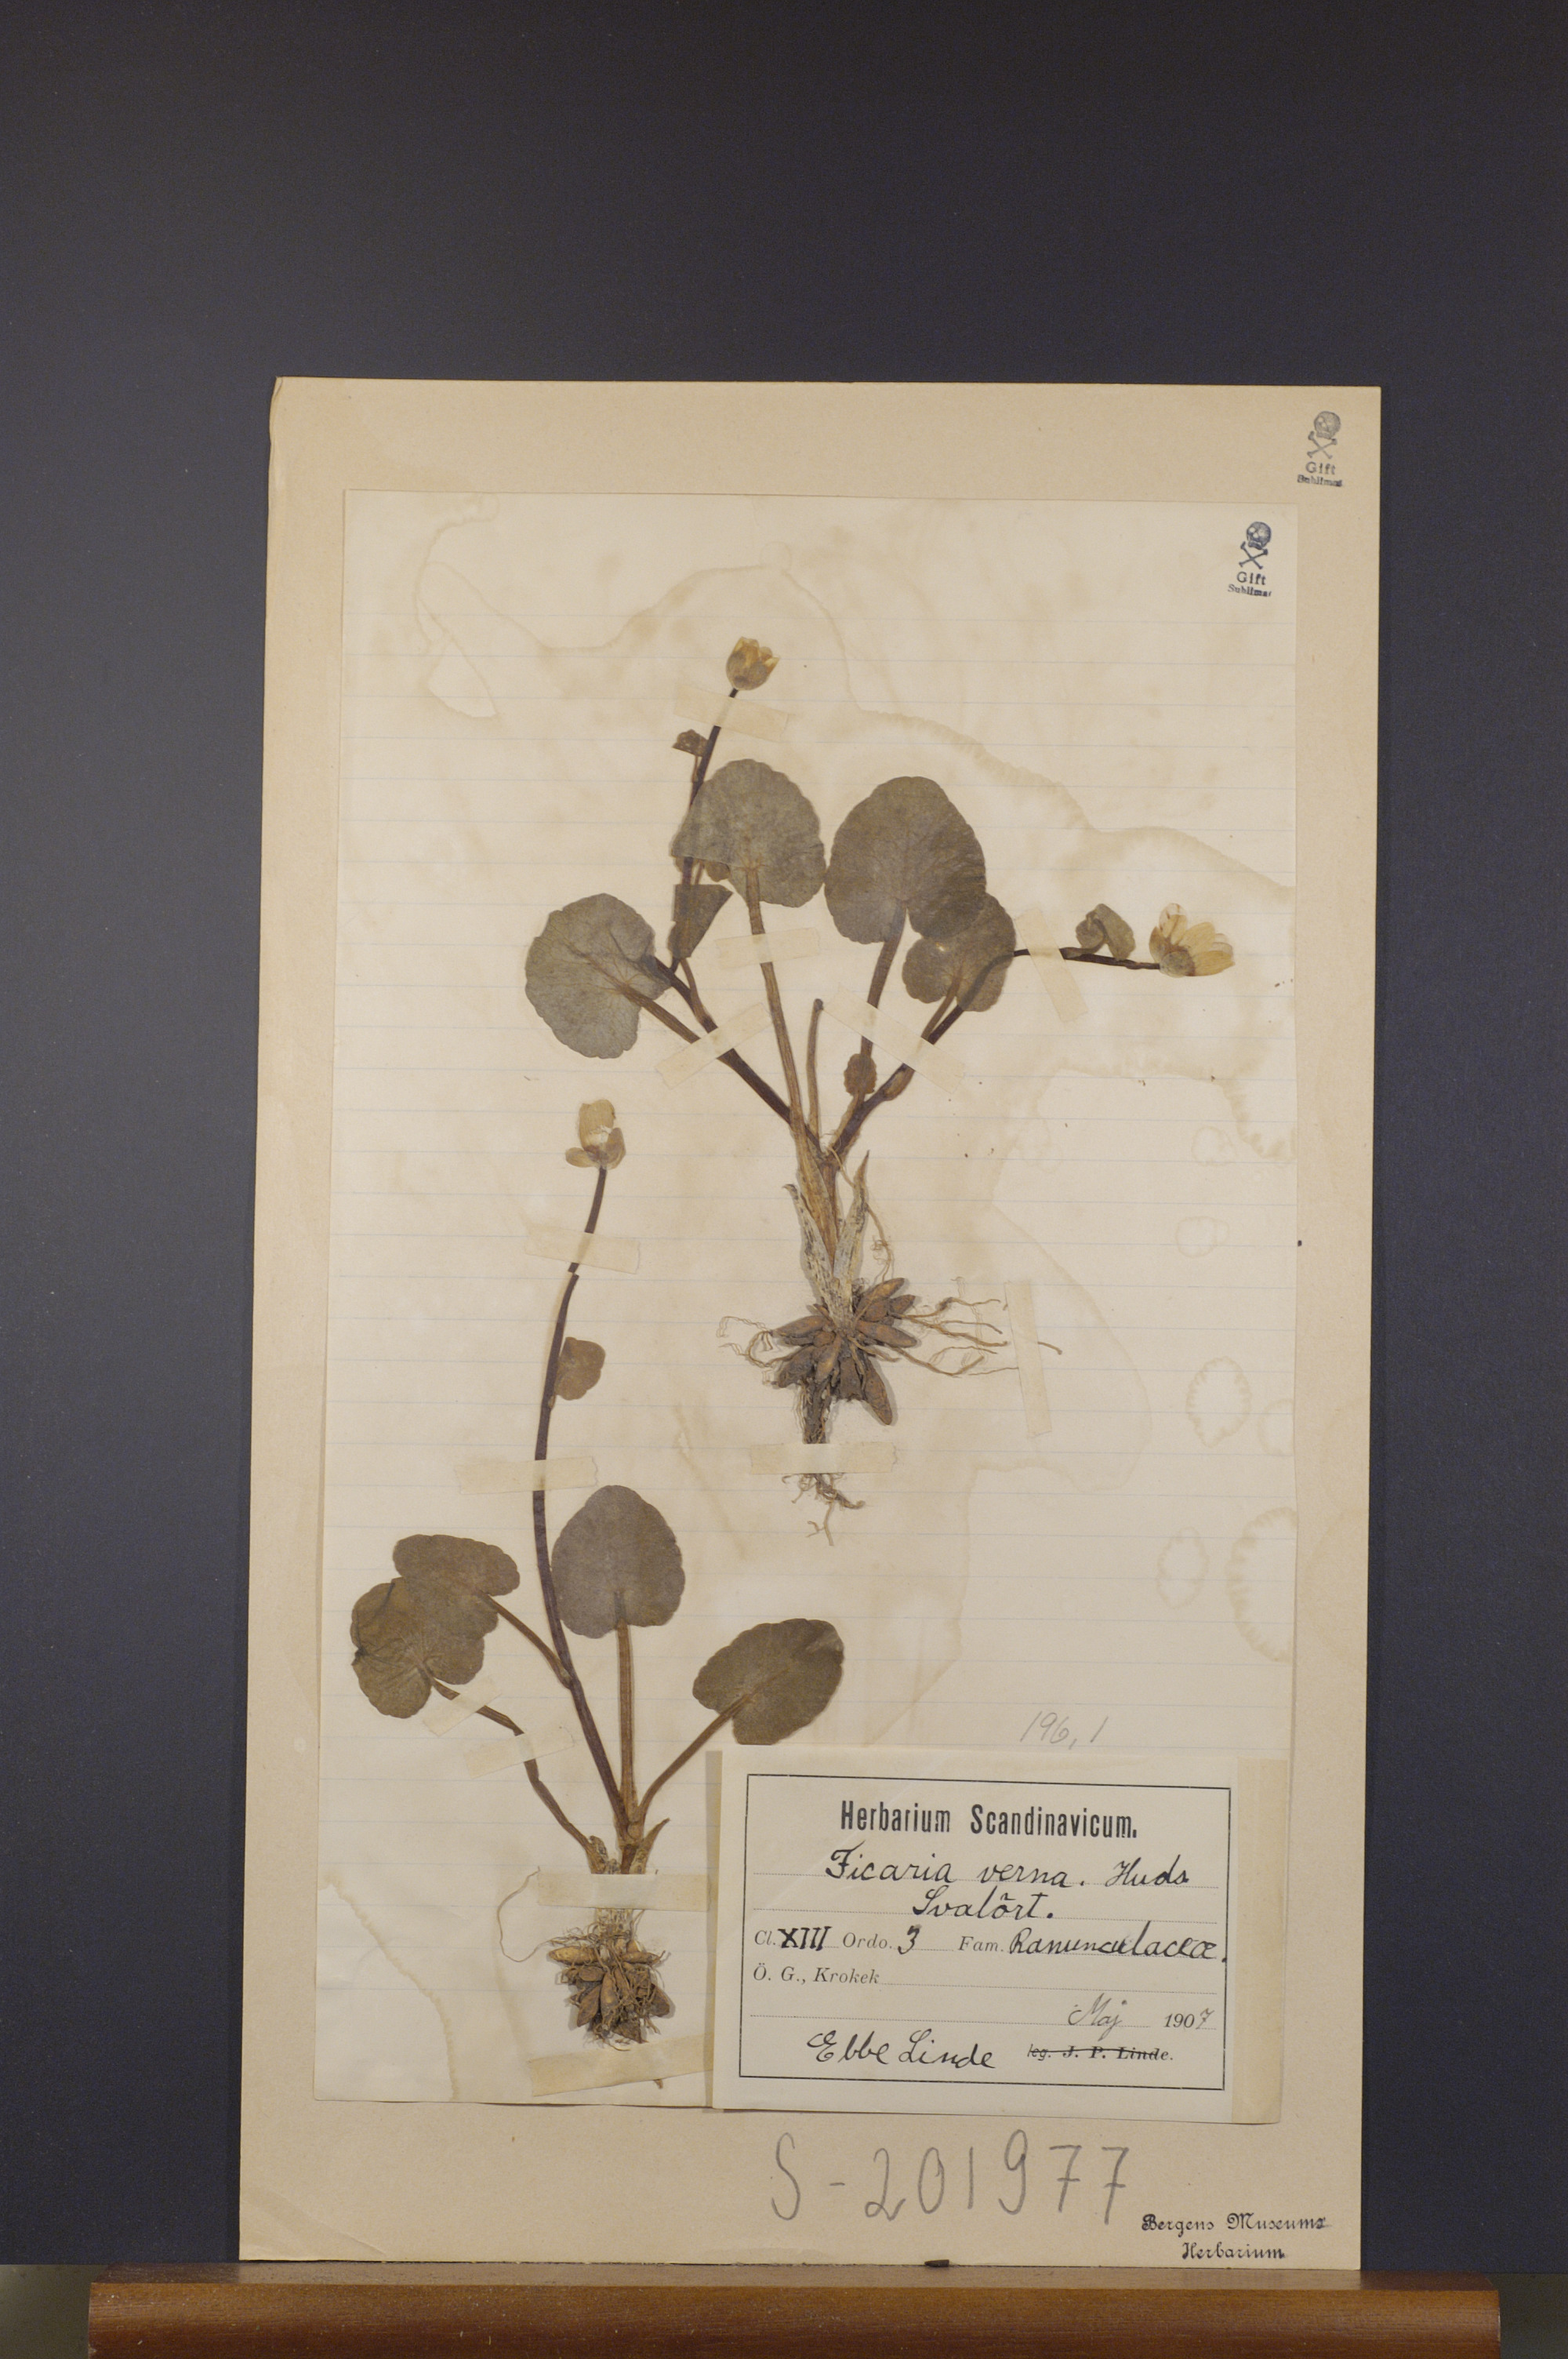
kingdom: Plantae
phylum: Tracheophyta
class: Magnoliopsida
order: Ranunculales
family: Ranunculaceae
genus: Ficaria
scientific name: Ficaria verna
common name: Lesser celandine
